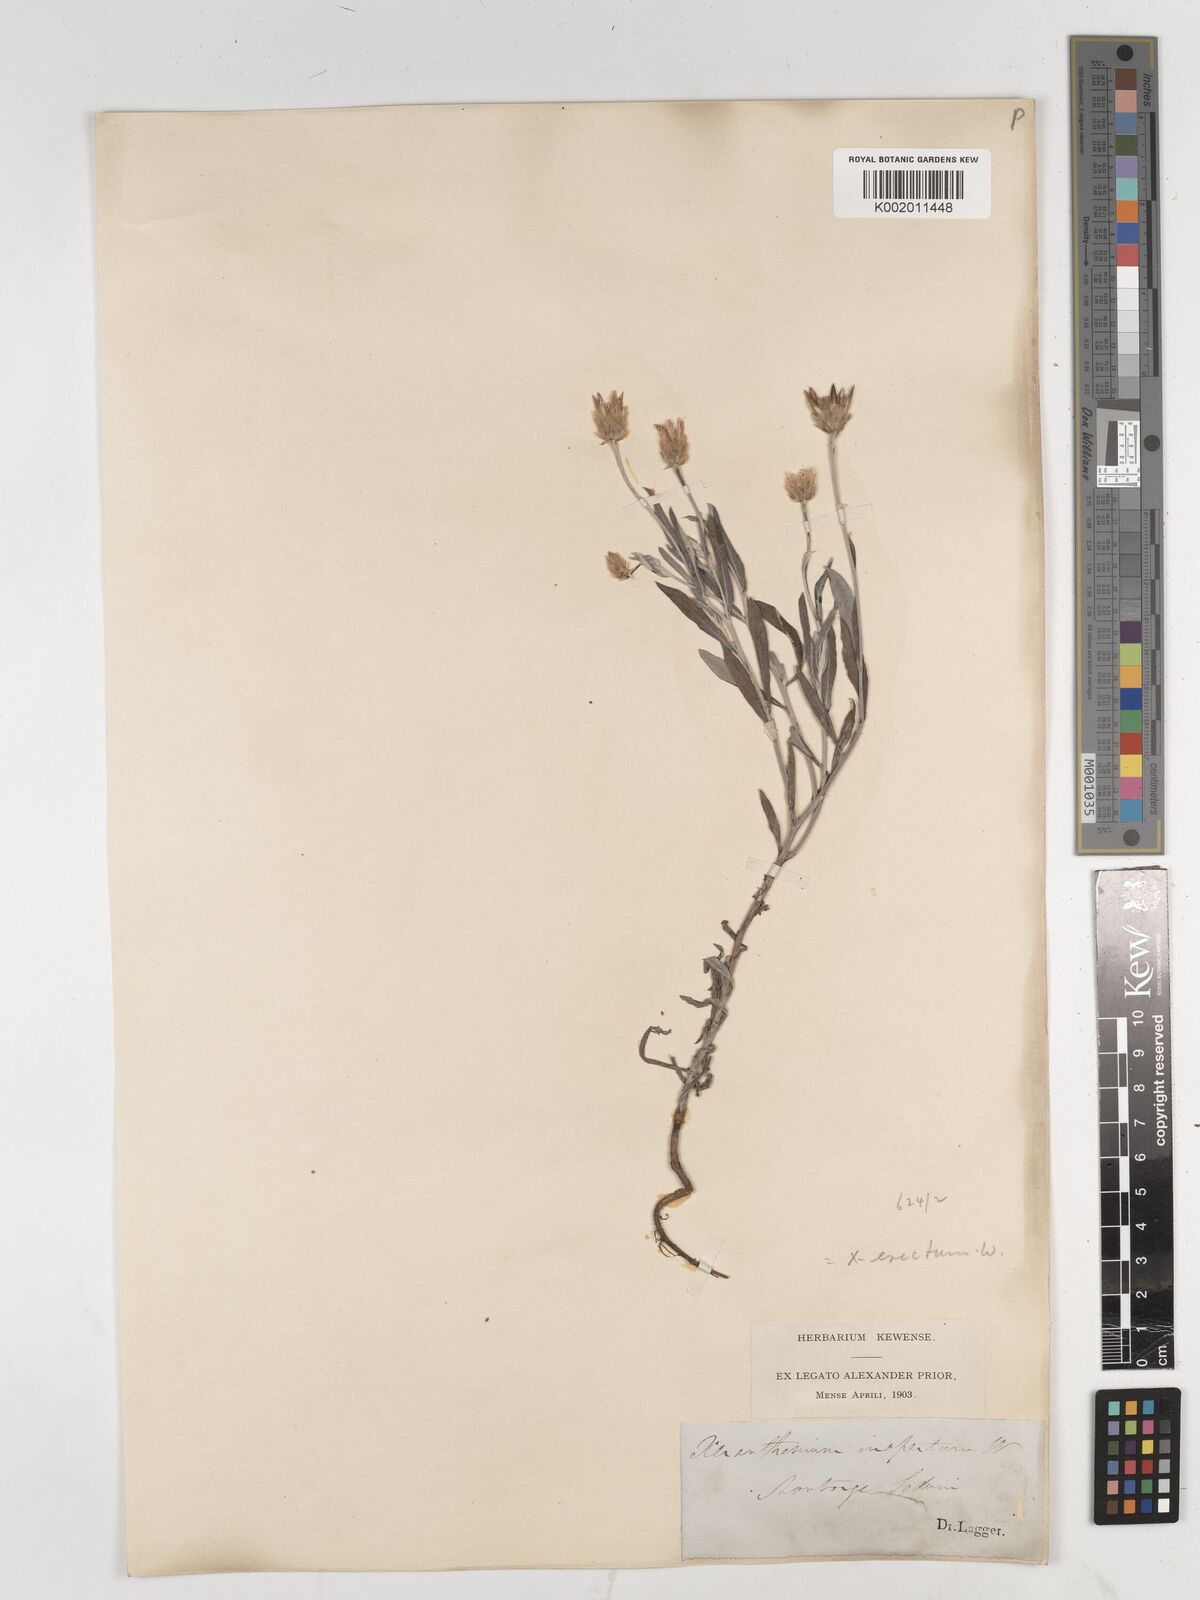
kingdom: Plantae
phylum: Tracheophyta
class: Magnoliopsida
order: Asterales
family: Asteraceae
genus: Xeranthemum
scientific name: Xeranthemum
